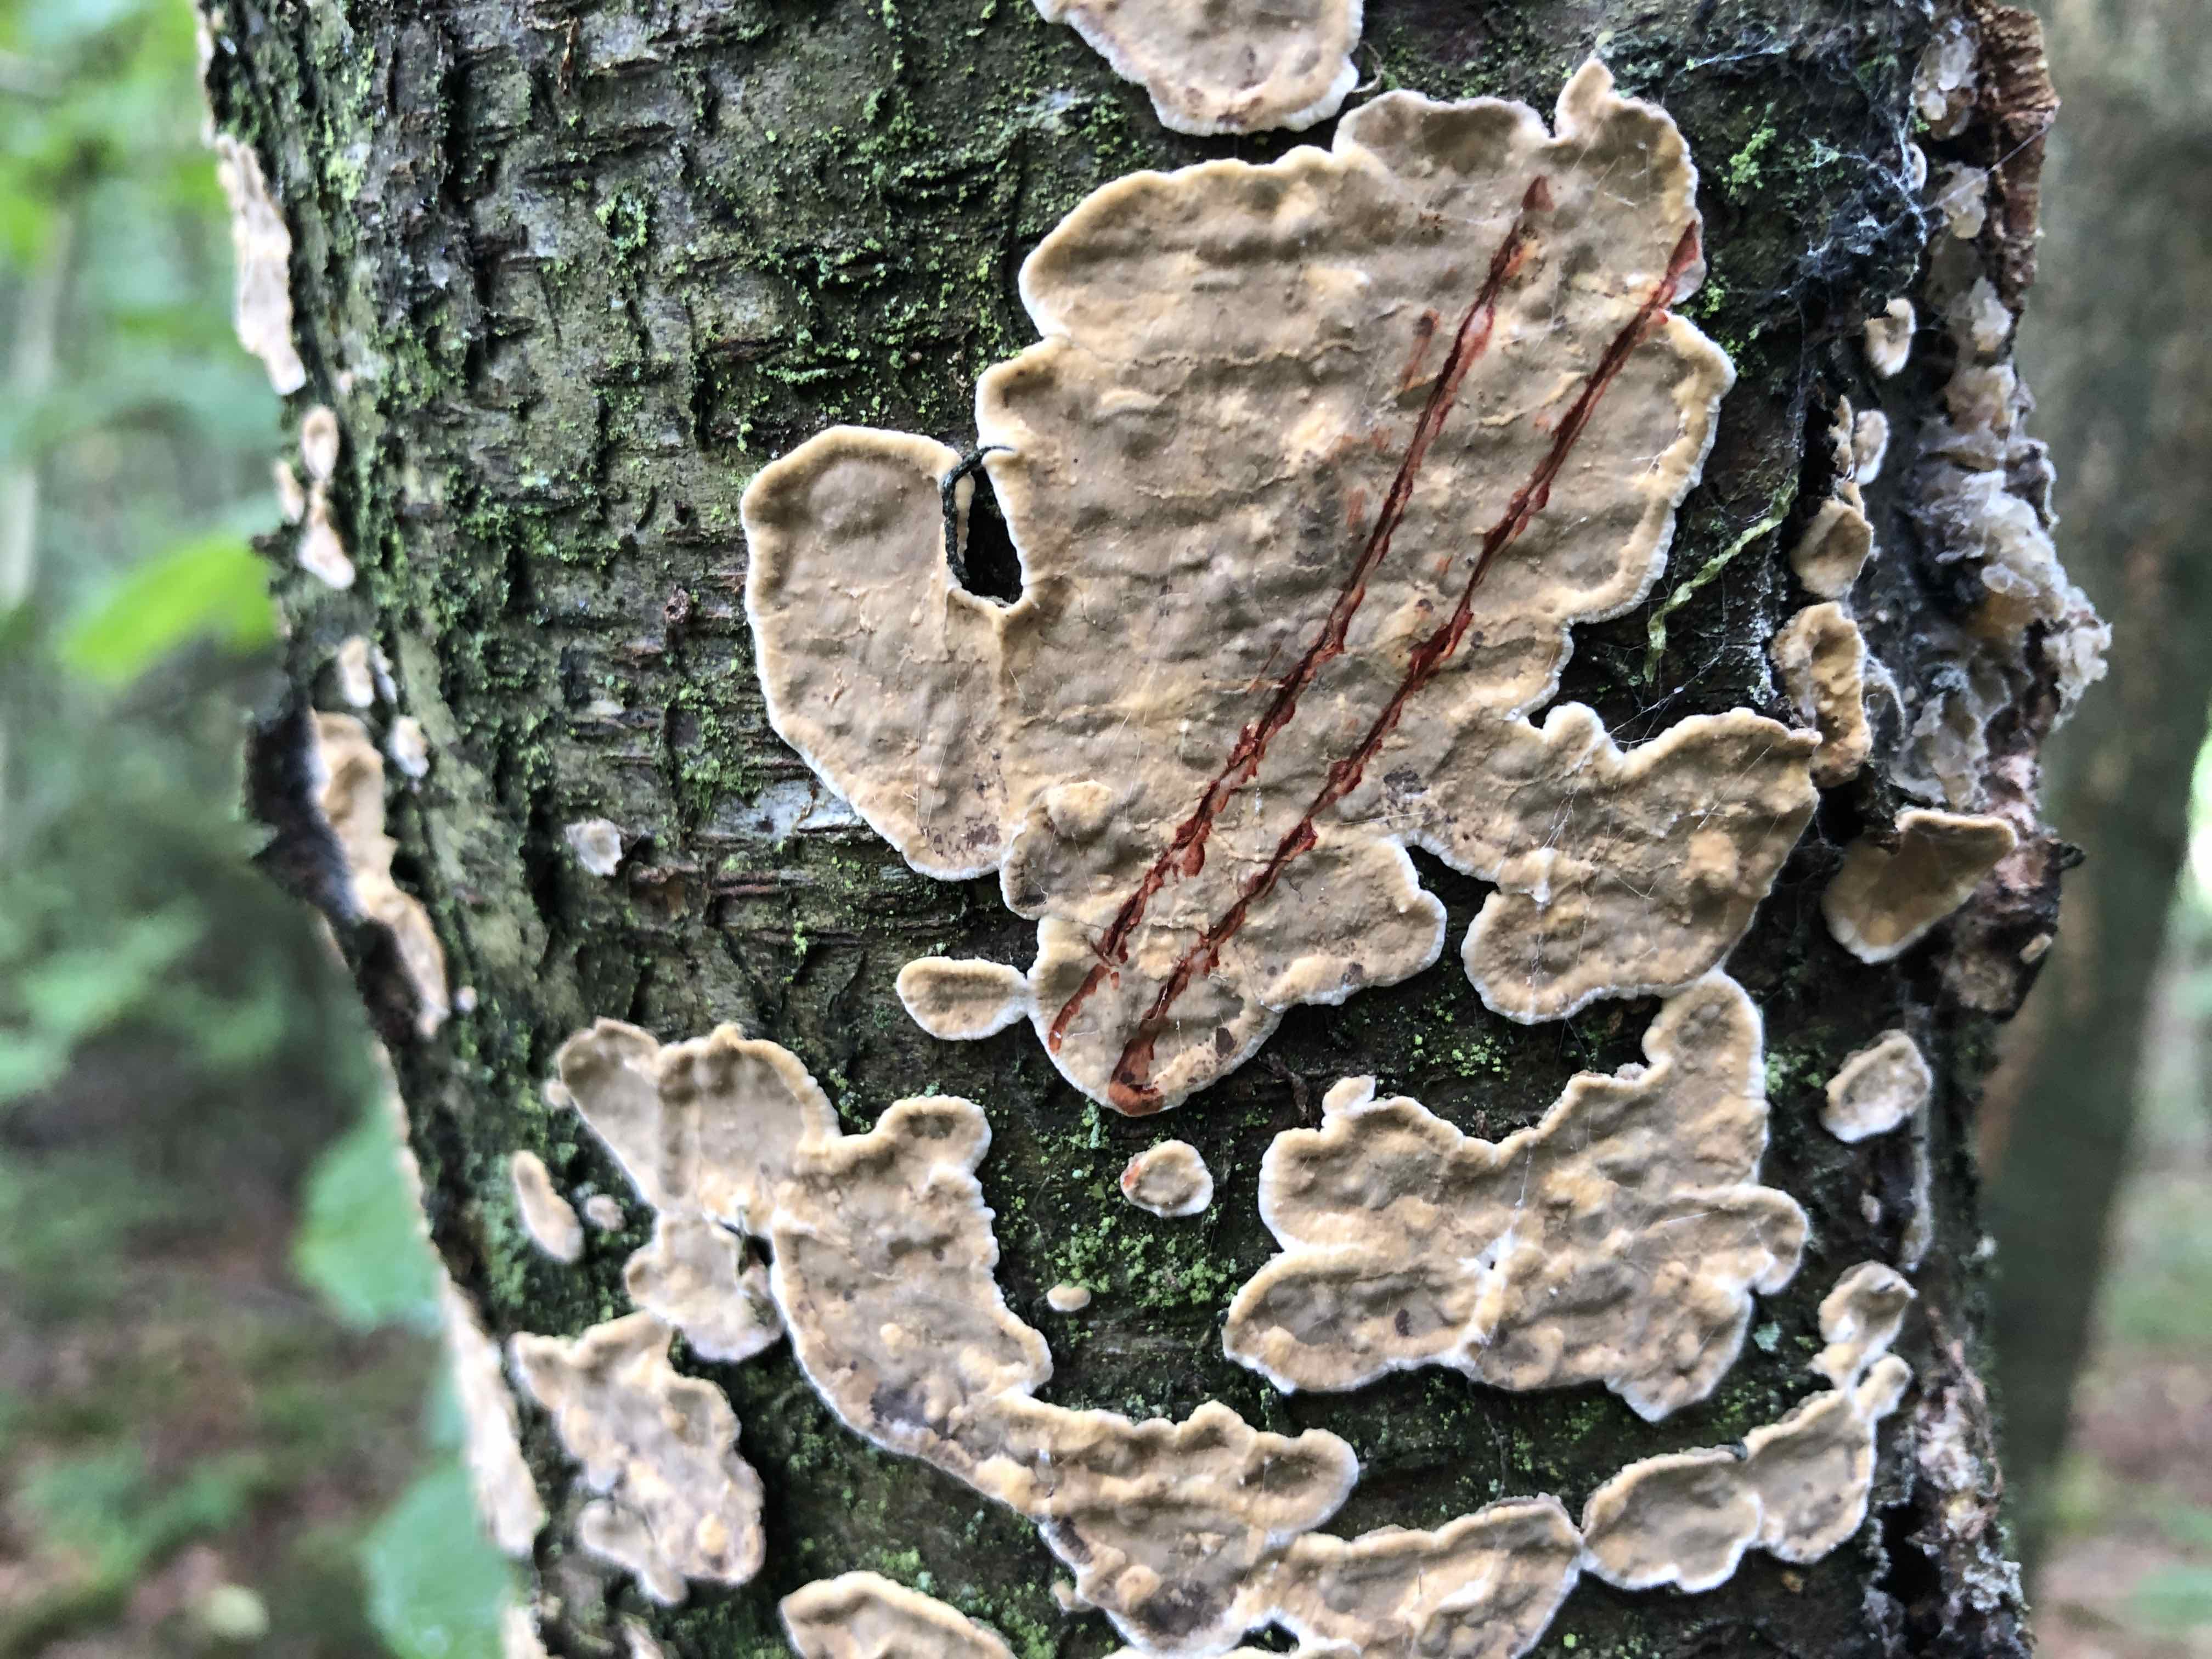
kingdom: Fungi
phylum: Basidiomycota
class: Agaricomycetes
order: Russulales
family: Stereaceae
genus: Stereum
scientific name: Stereum rugosum
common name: rynket lædersvamp
